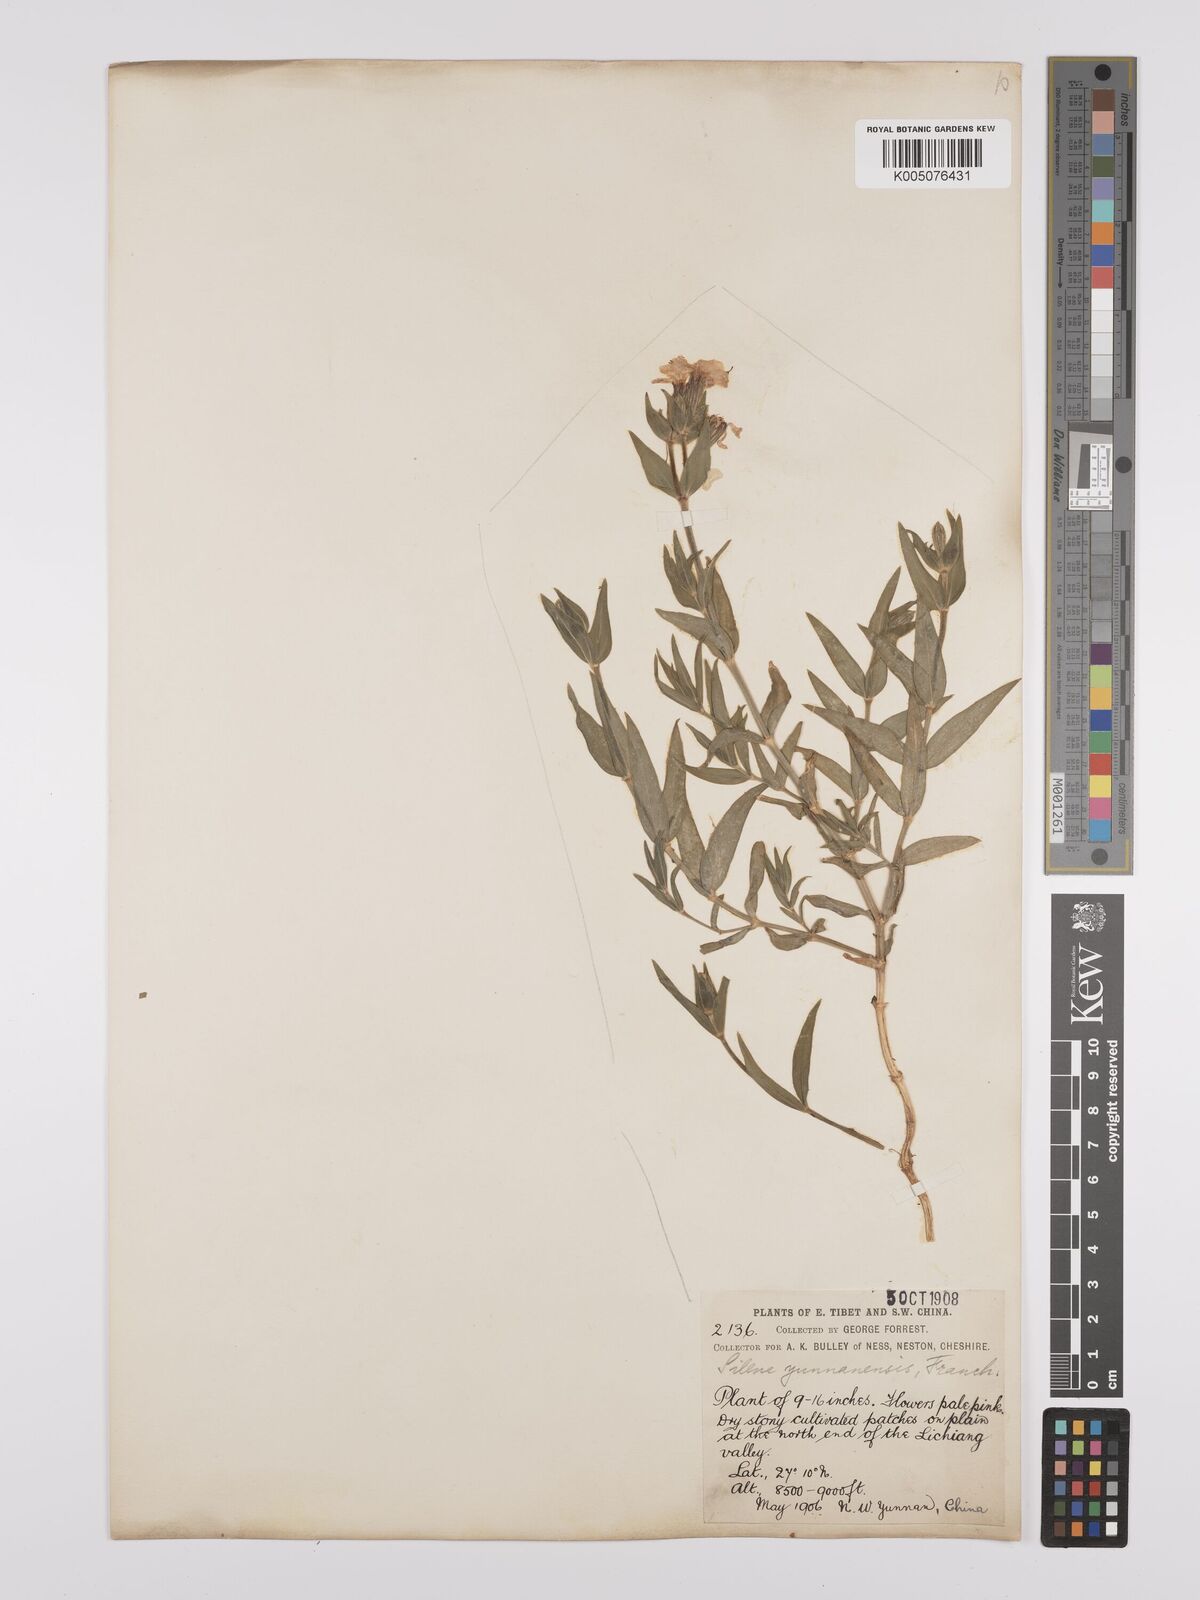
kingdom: Plantae
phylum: Tracheophyta
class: Magnoliopsida
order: Caryophyllales
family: Caryophyllaceae
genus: Silene
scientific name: Silene yunnanensis
